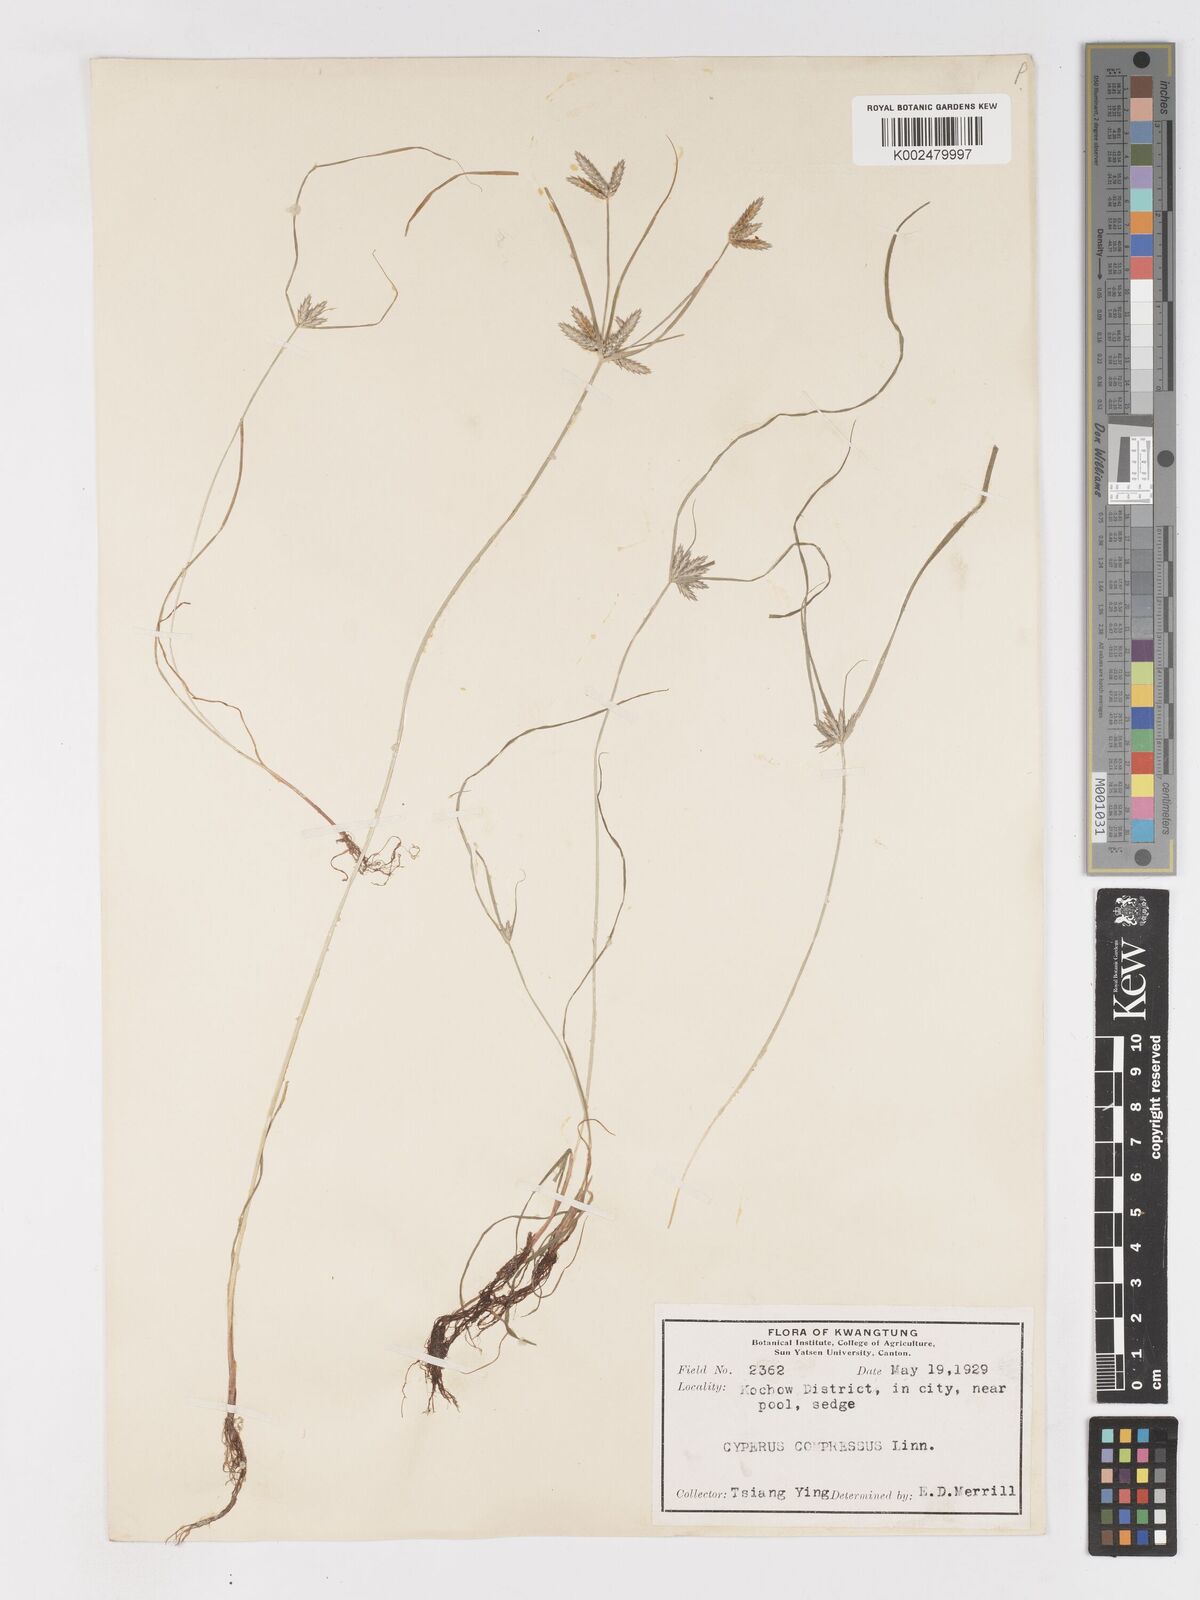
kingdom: Plantae
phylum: Tracheophyta
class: Liliopsida
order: Poales
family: Cyperaceae
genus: Cyperus
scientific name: Cyperus compressus
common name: Poorland flatsedge
